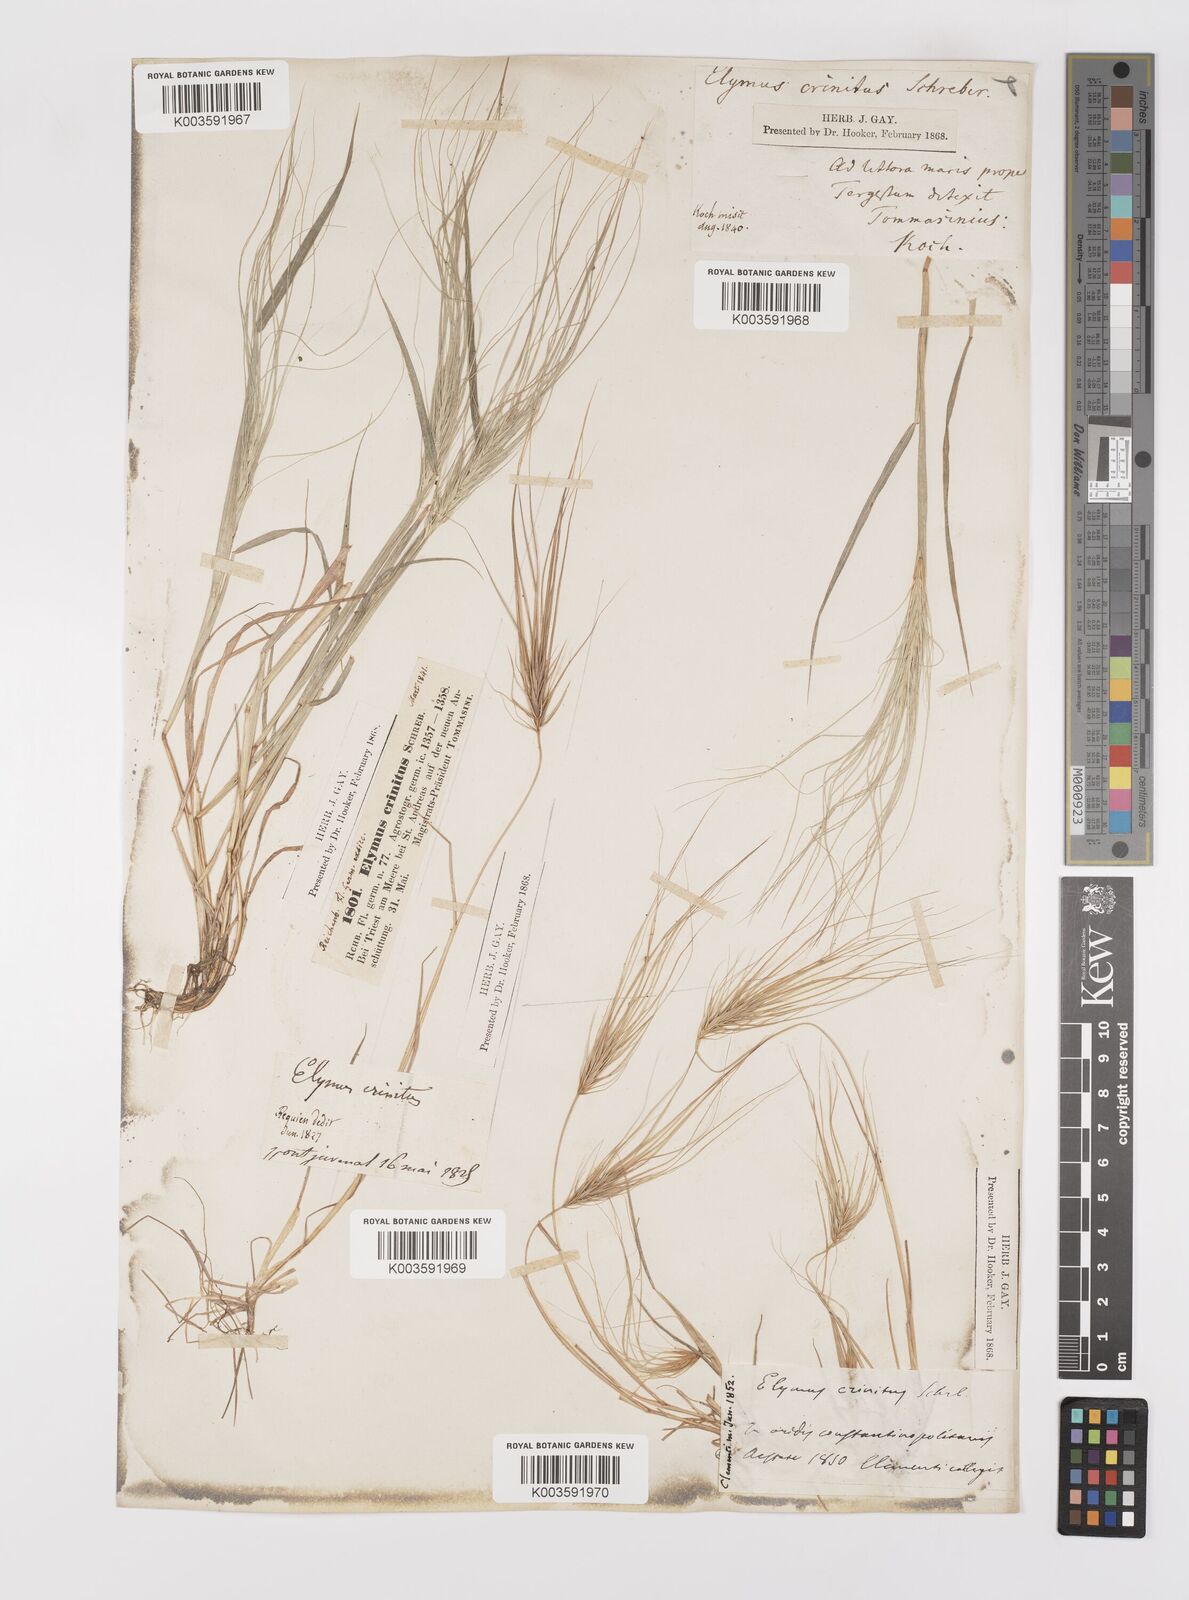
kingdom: Plantae
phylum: Tracheophyta
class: Liliopsida
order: Poales
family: Poaceae
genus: Taeniatherum
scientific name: Taeniatherum caput-medusae
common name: Medusahead
